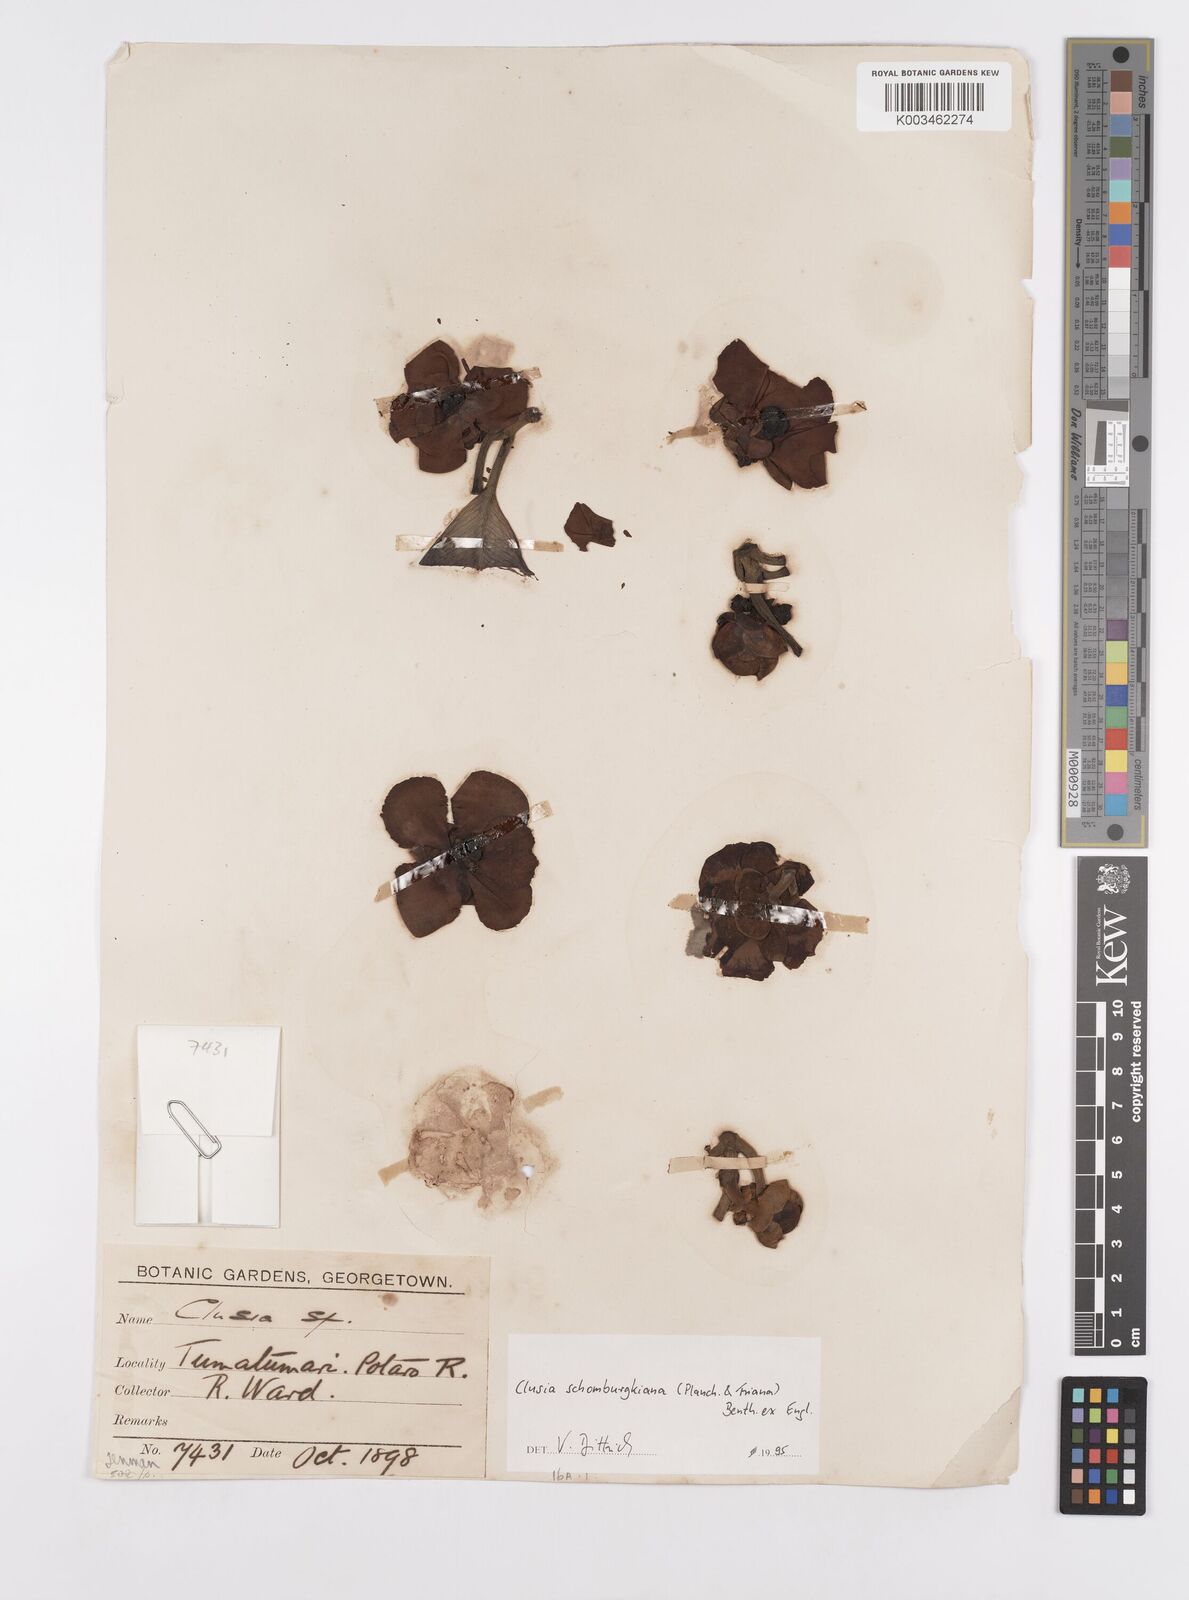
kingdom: Plantae
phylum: Tracheophyta
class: Magnoliopsida
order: Malpighiales
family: Clusiaceae
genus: Clusia
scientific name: Clusia schomburgkiana
